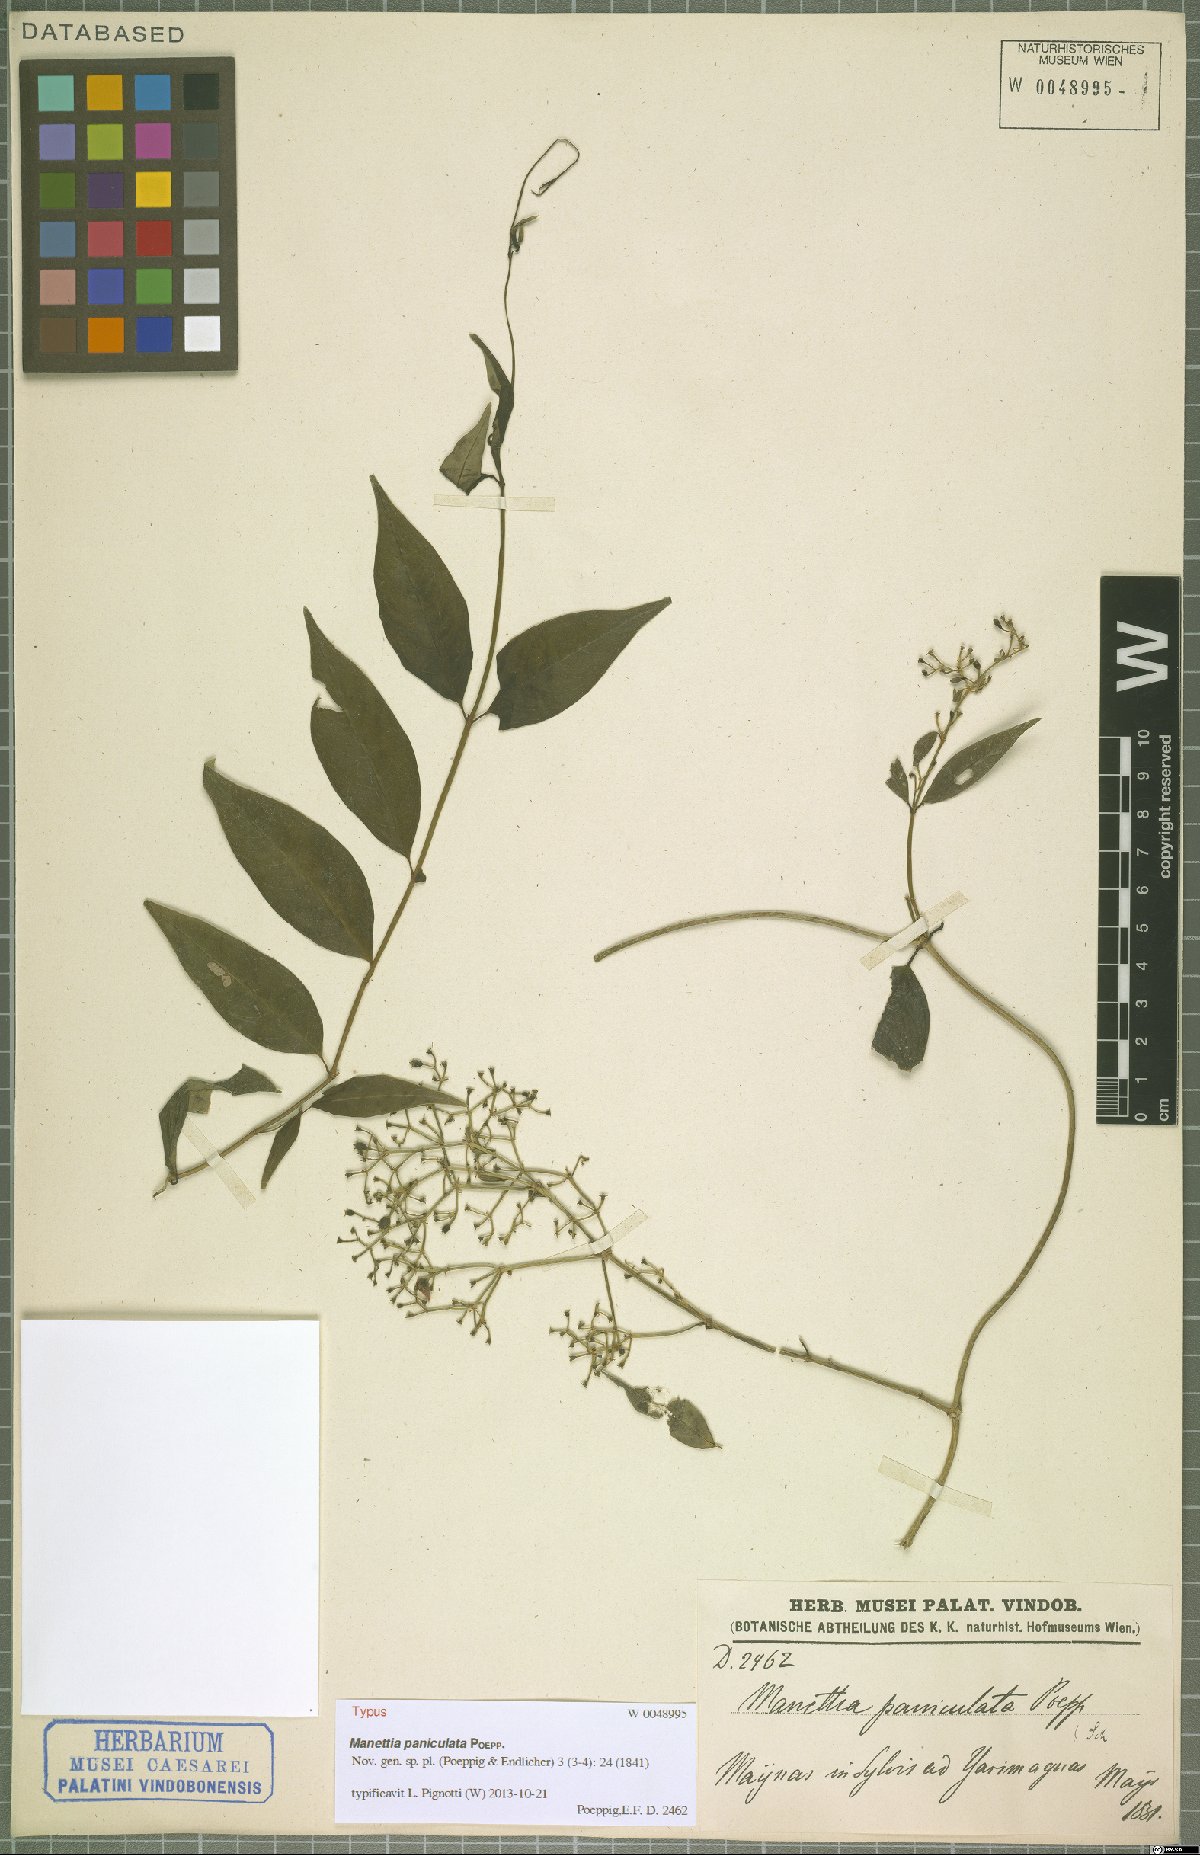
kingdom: Plantae
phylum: Tracheophyta
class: Magnoliopsida
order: Gentianales
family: Rubiaceae
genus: Manettia
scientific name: Manettia paniculata
